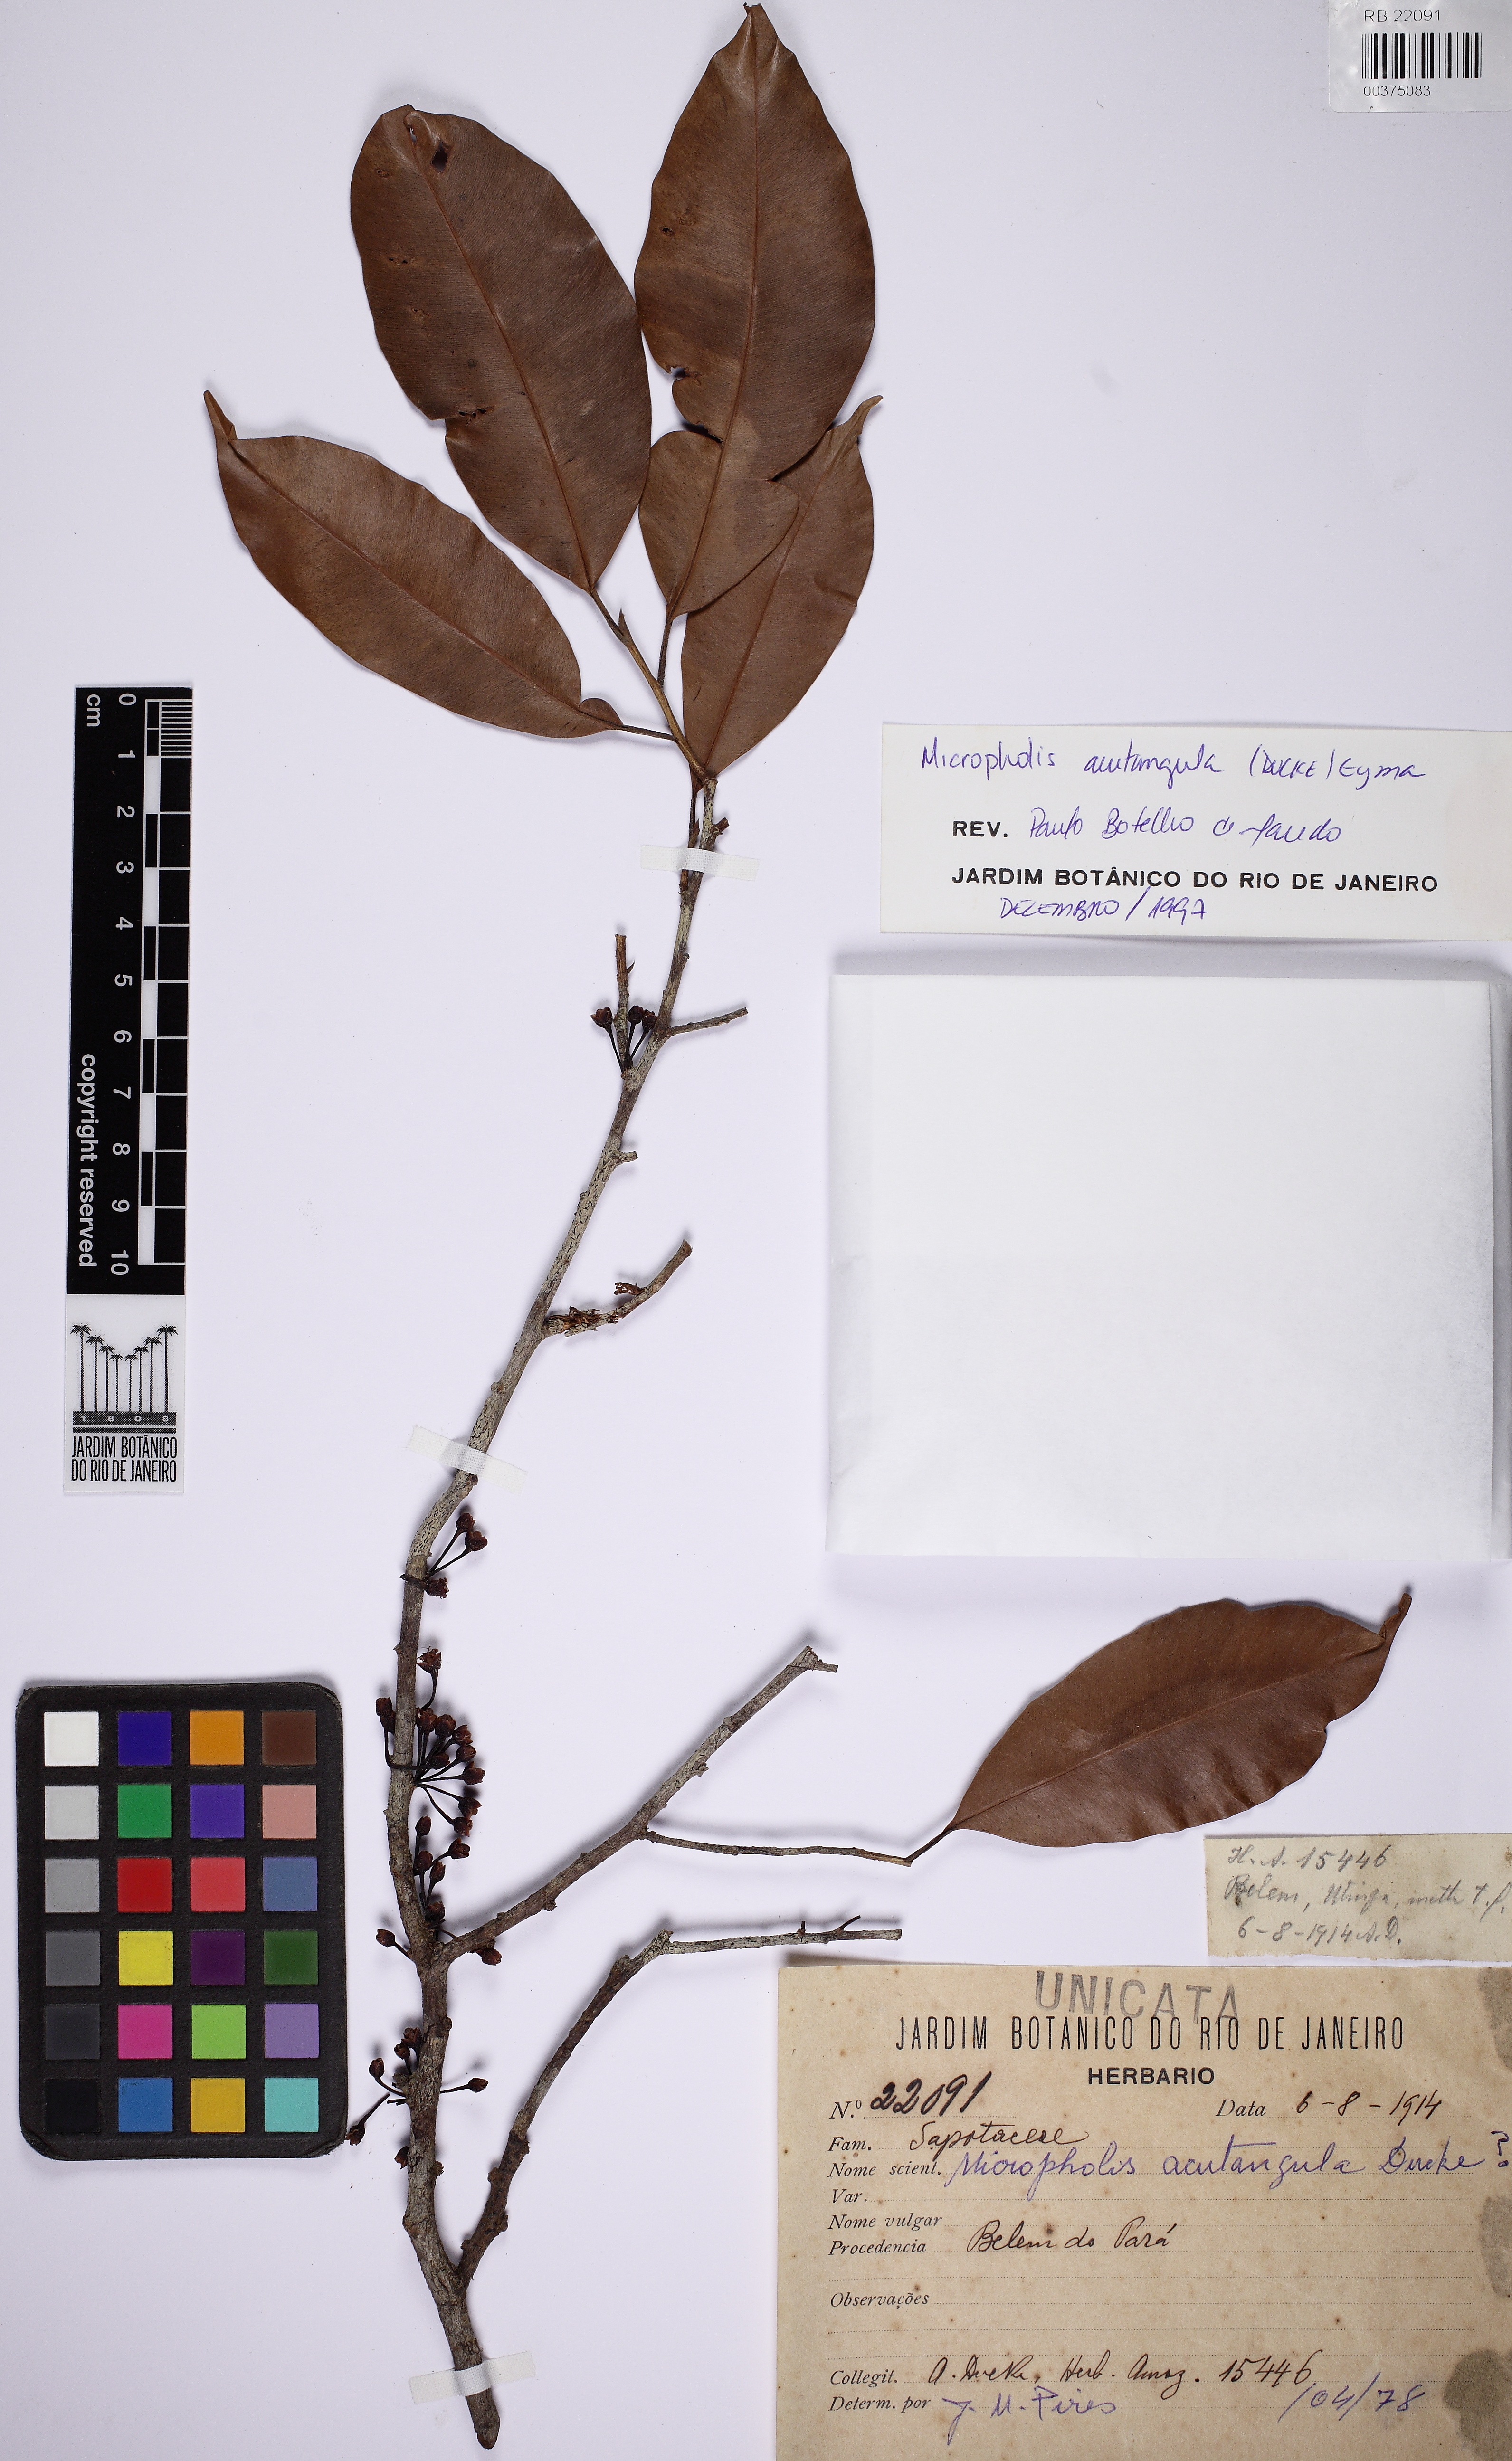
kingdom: Plantae
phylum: Tracheophyta
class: Magnoliopsida
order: Ericales
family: Sapotaceae
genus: Micropholis
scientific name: Micropholis egensis
